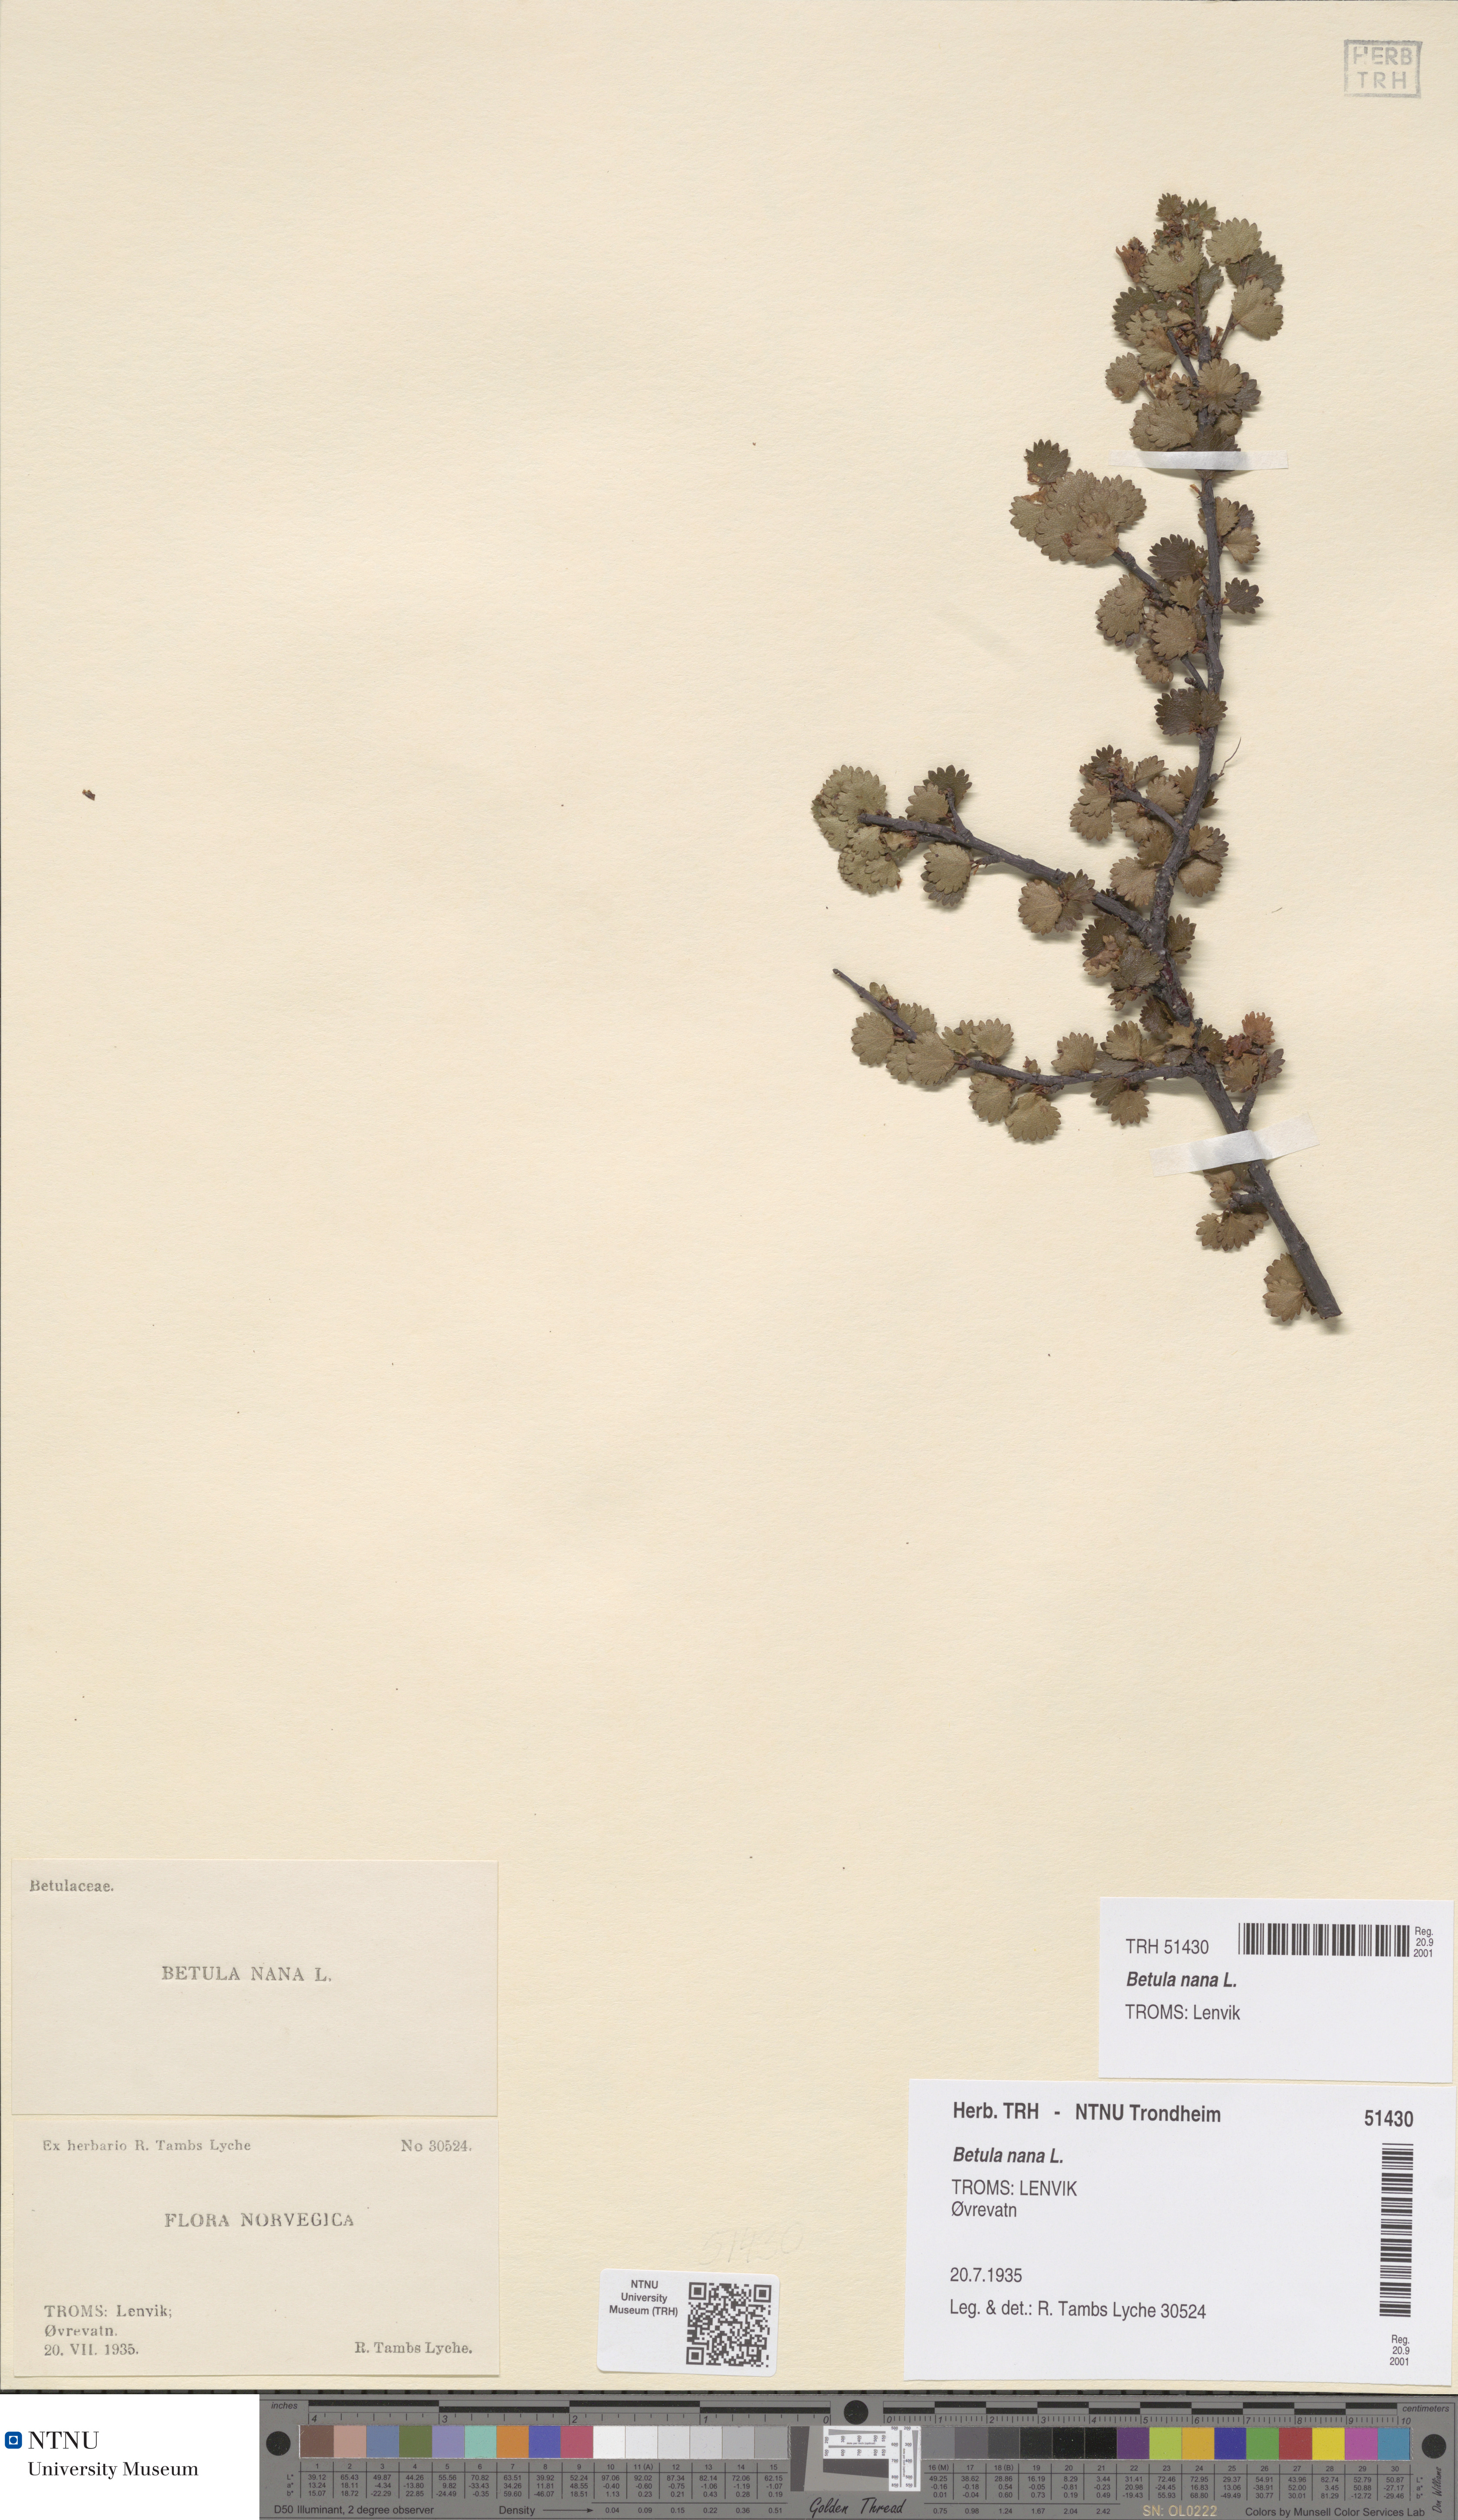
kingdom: Plantae
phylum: Tracheophyta
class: Magnoliopsida
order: Fagales
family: Betulaceae
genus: Betula
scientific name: Betula nana
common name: Arctic dwarf birch
